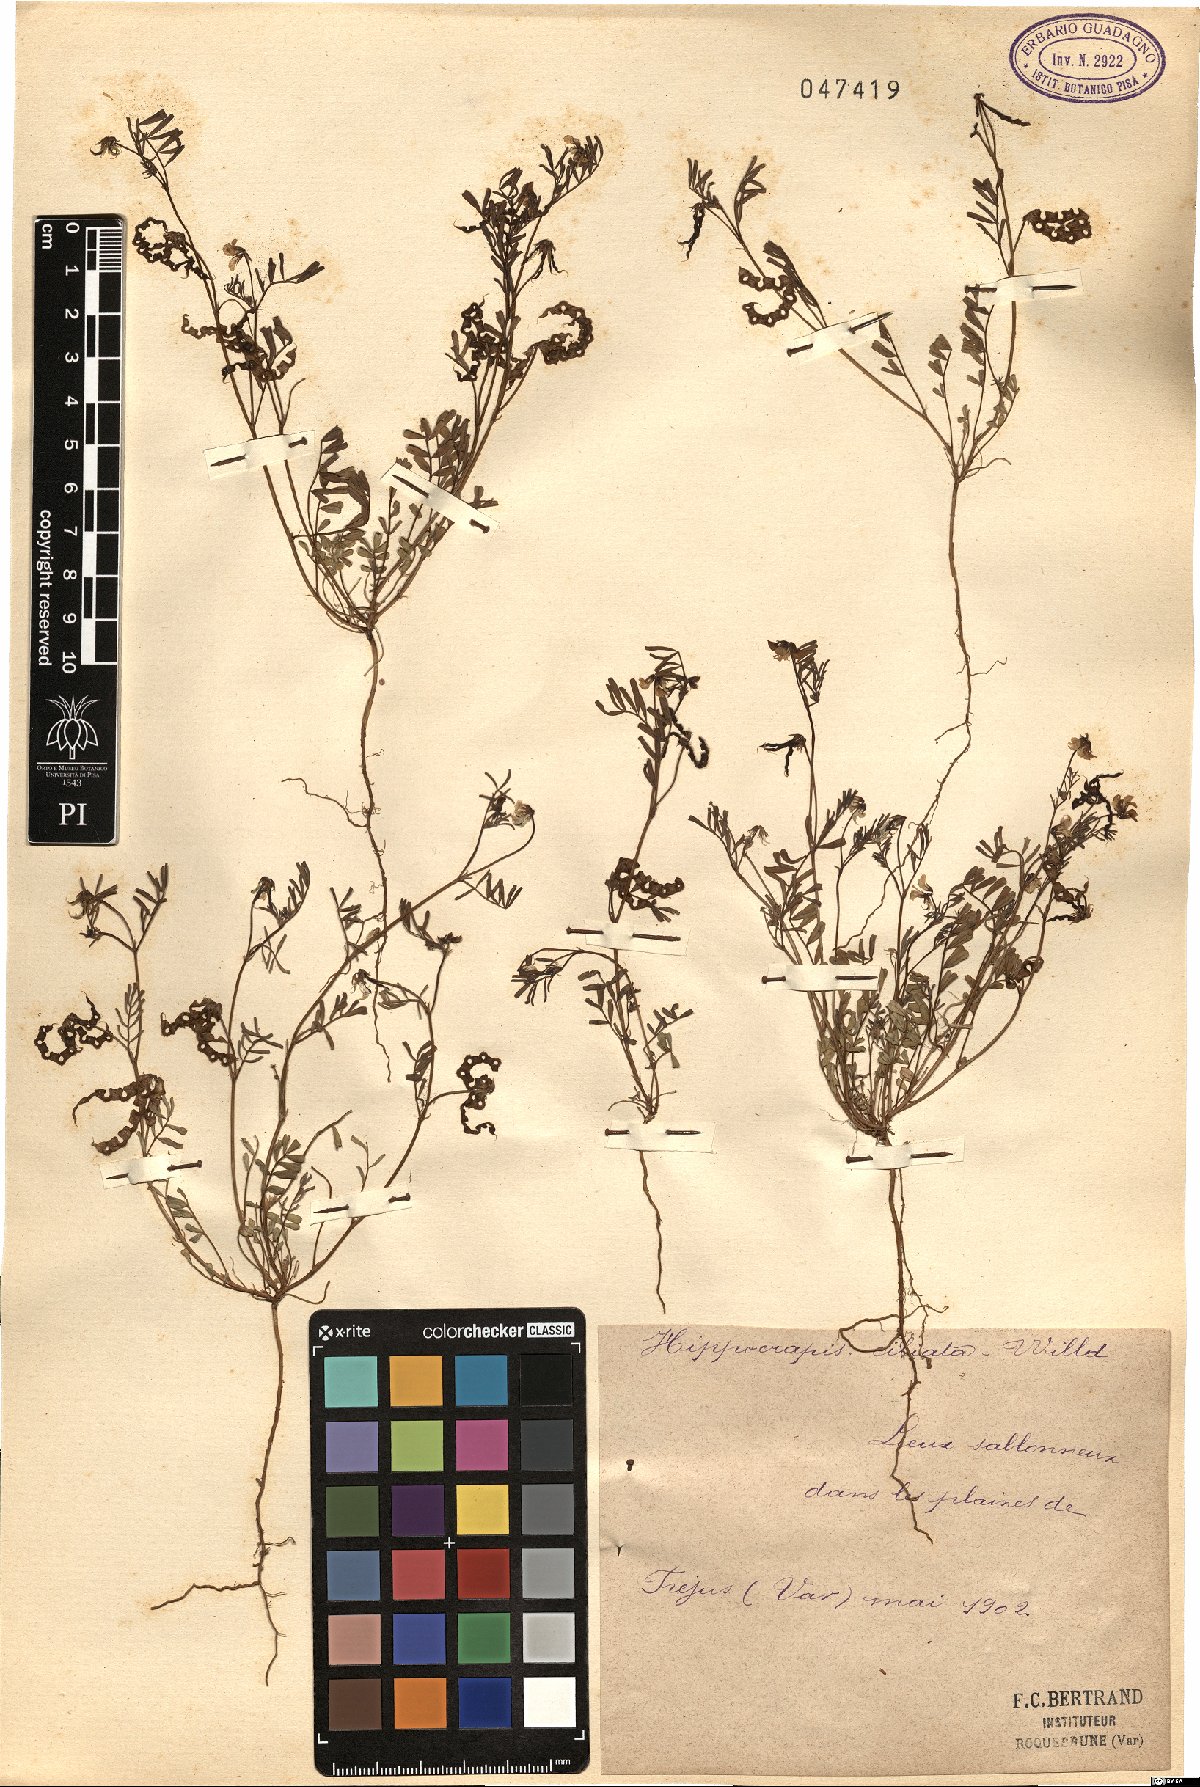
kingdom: Plantae
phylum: Tracheophyta
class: Magnoliopsida
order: Fabales
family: Fabaceae
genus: Hippocrepis
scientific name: Hippocrepis ciliata
